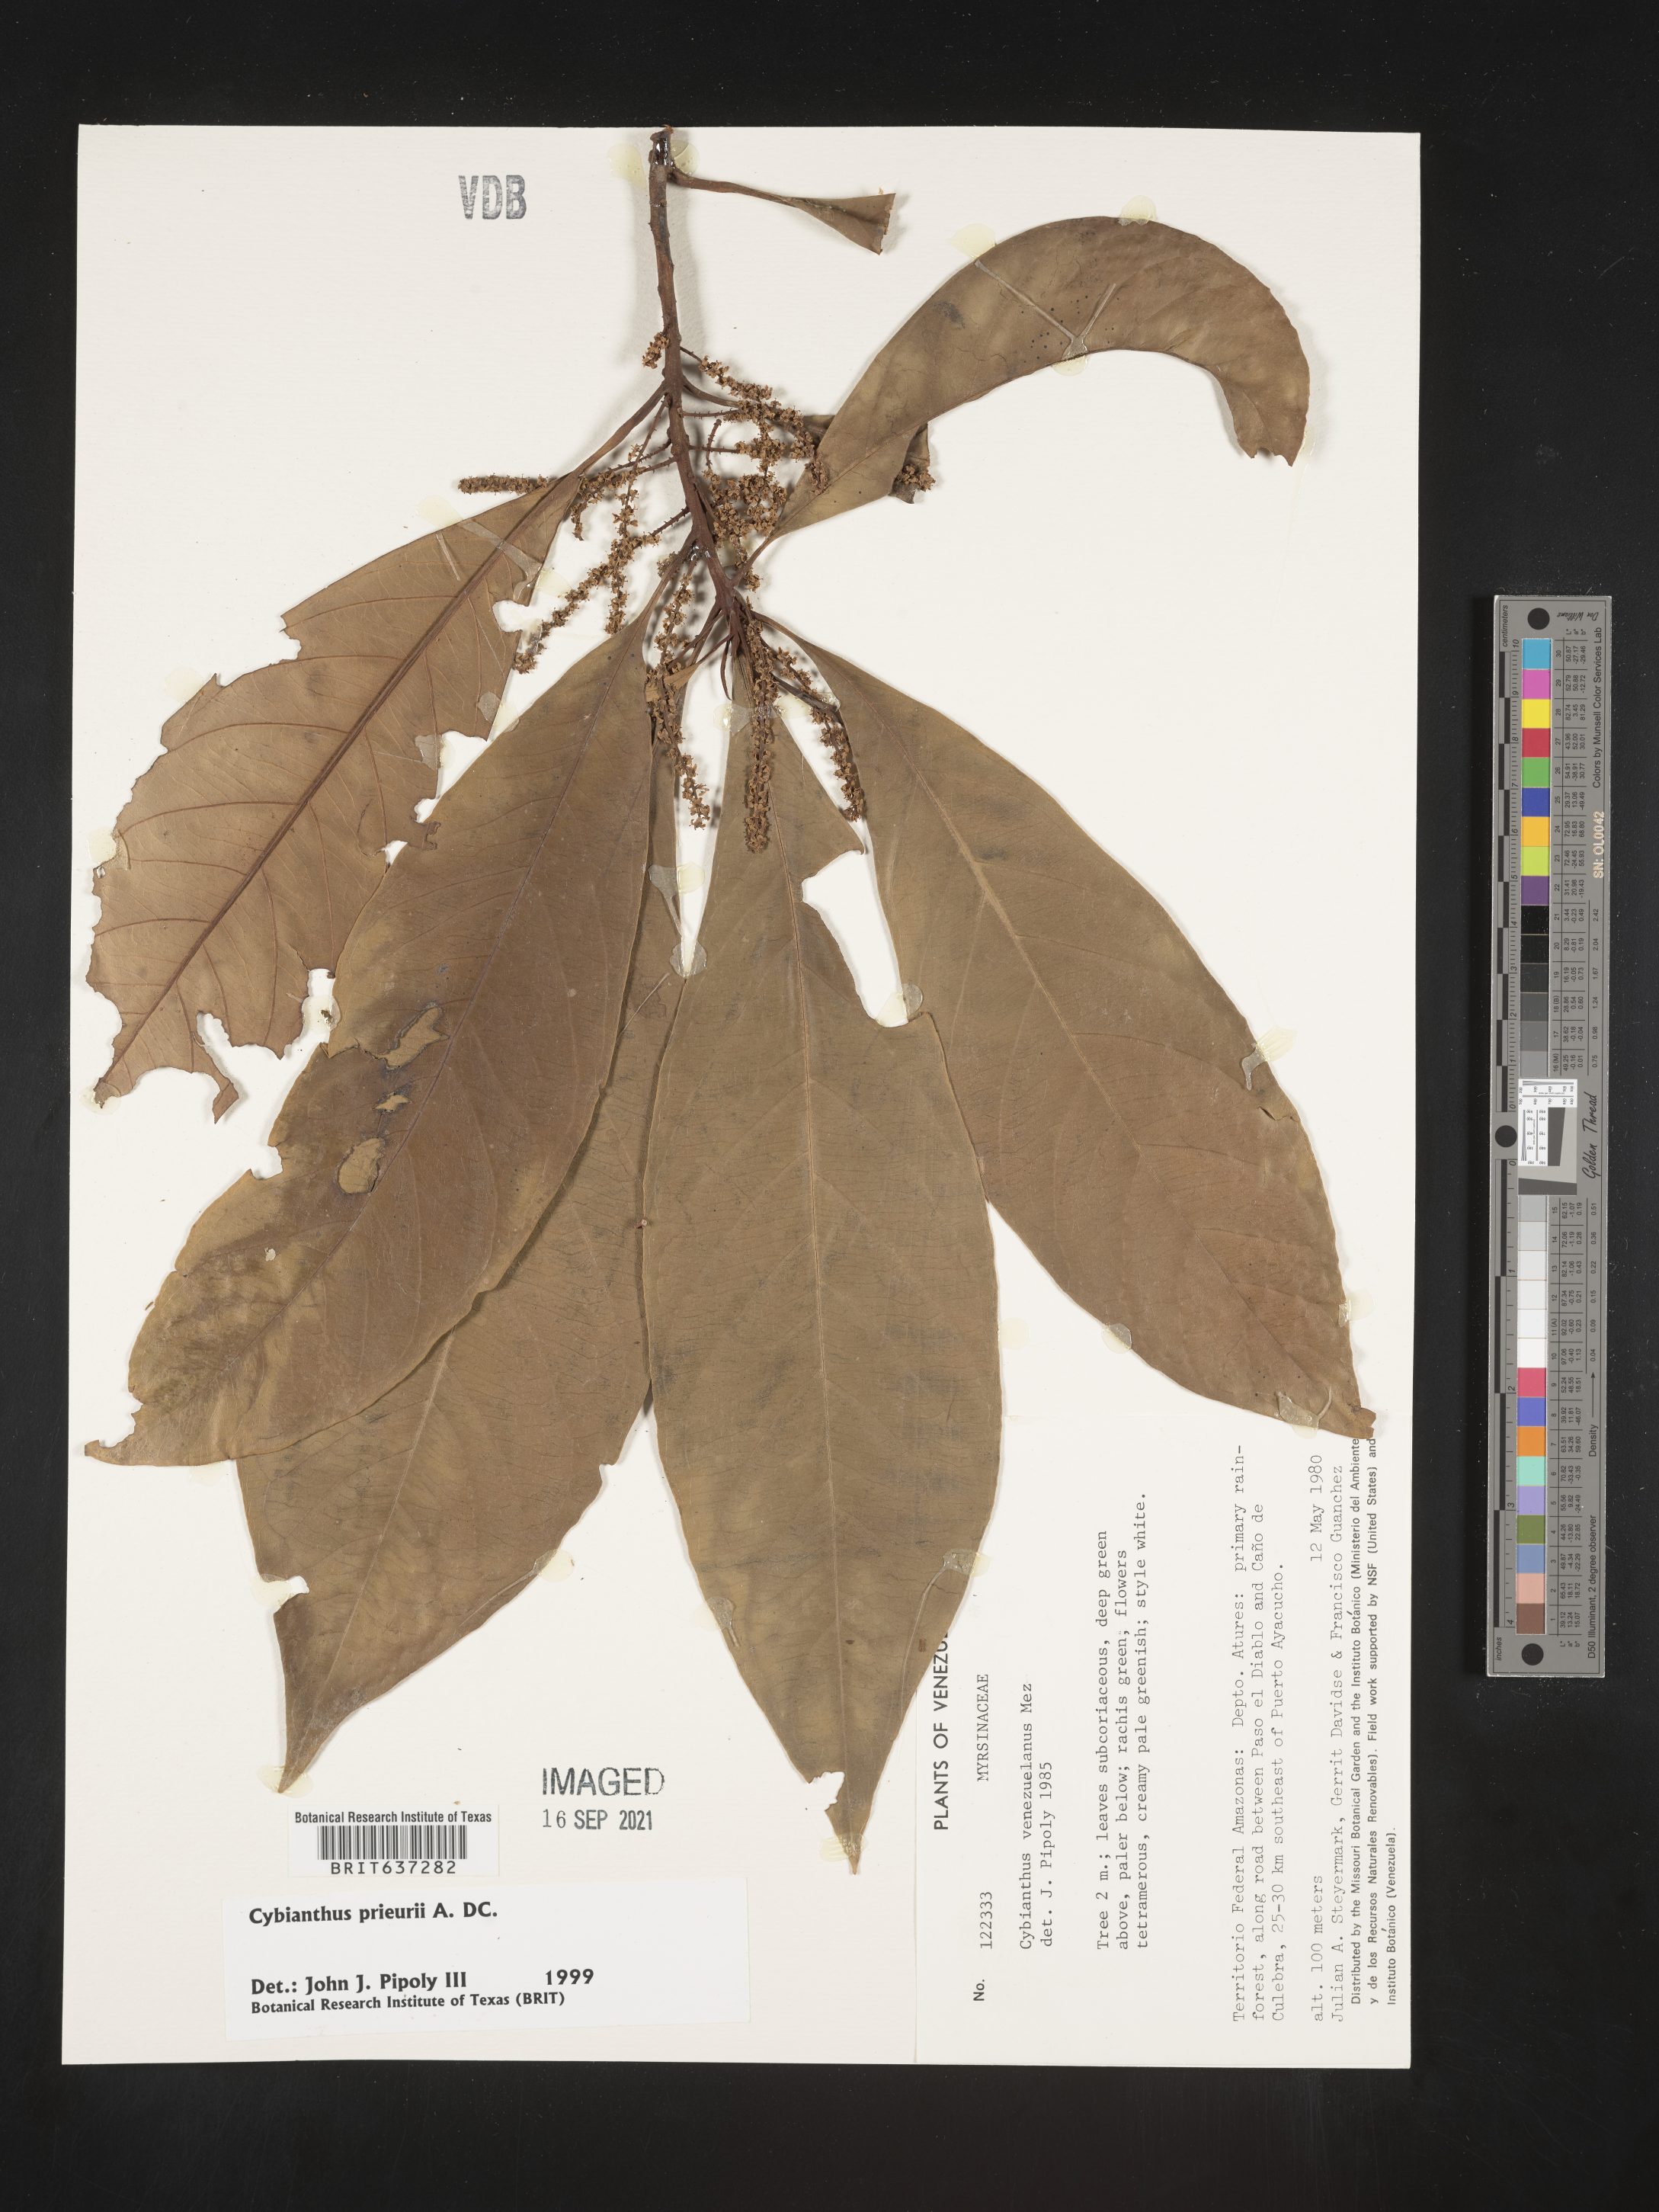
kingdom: Plantae
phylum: Tracheophyta
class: Magnoliopsida
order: Ericales
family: Primulaceae
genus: Cybianthus
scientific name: Cybianthus
